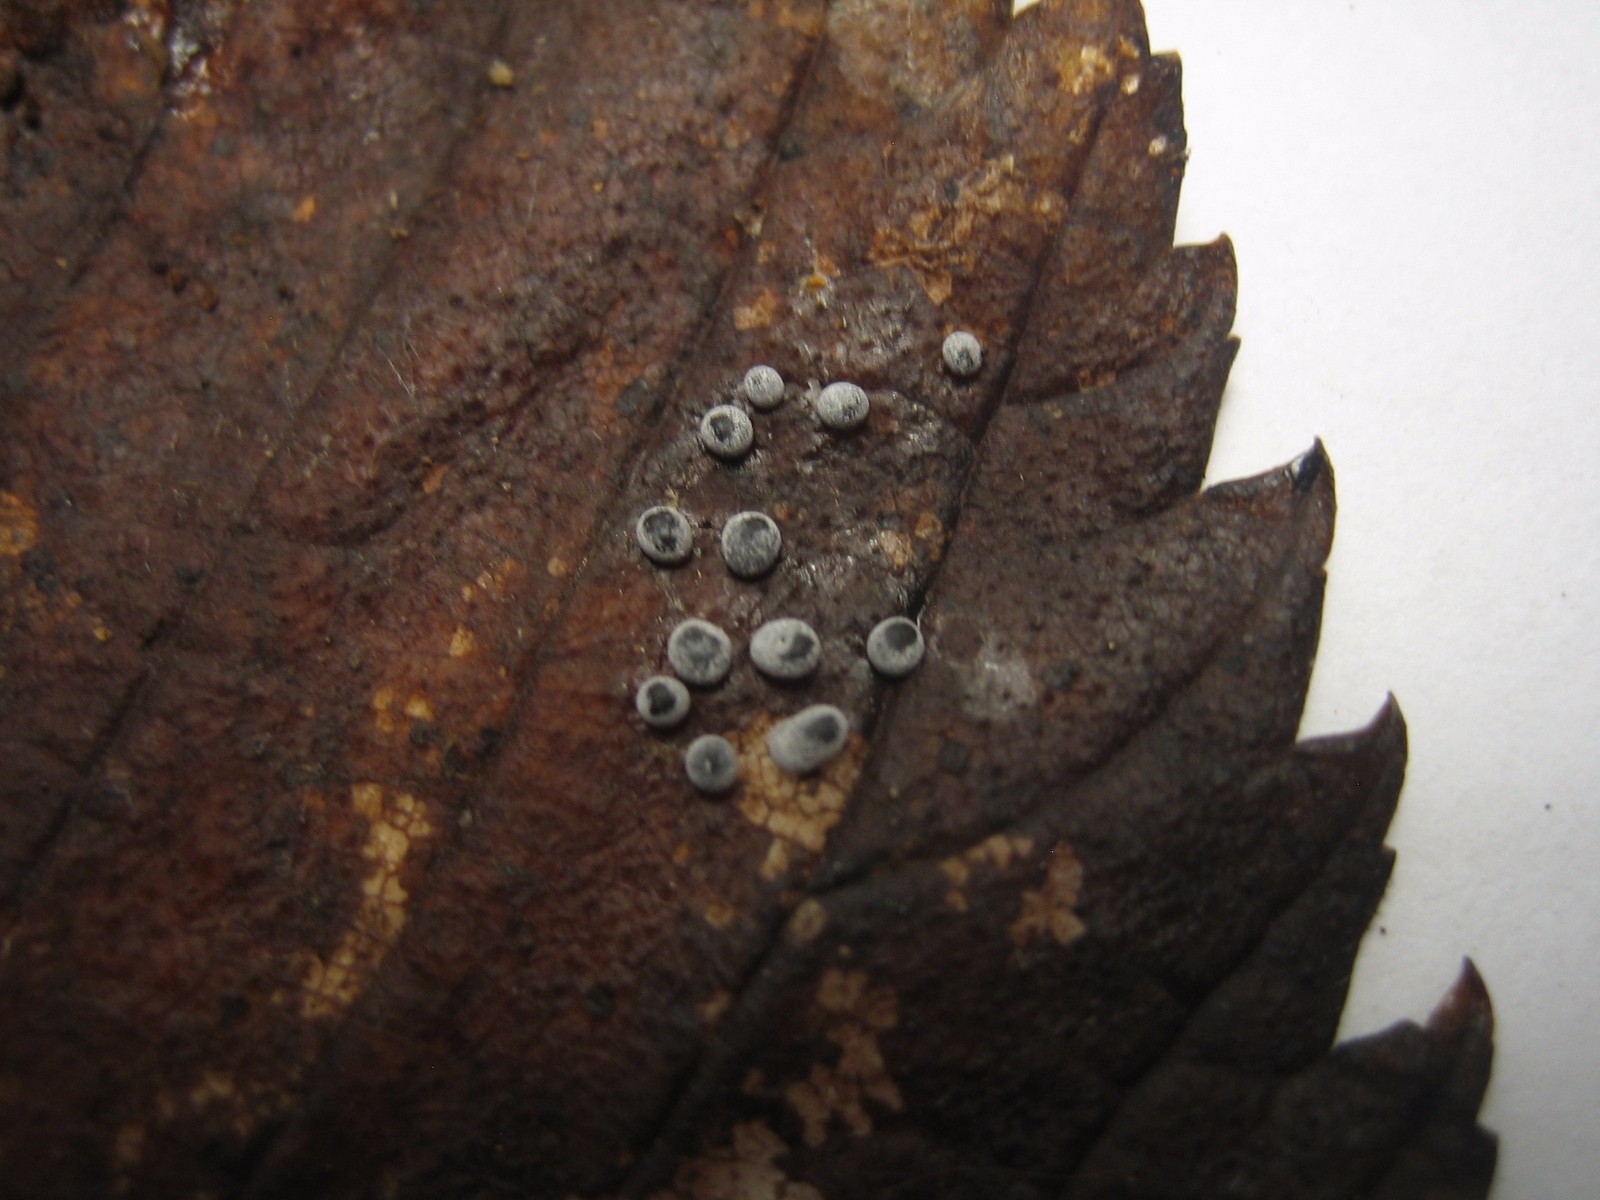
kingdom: Protozoa
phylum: Mycetozoa
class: Myxomycetes
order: Physarales
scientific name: Physarales
